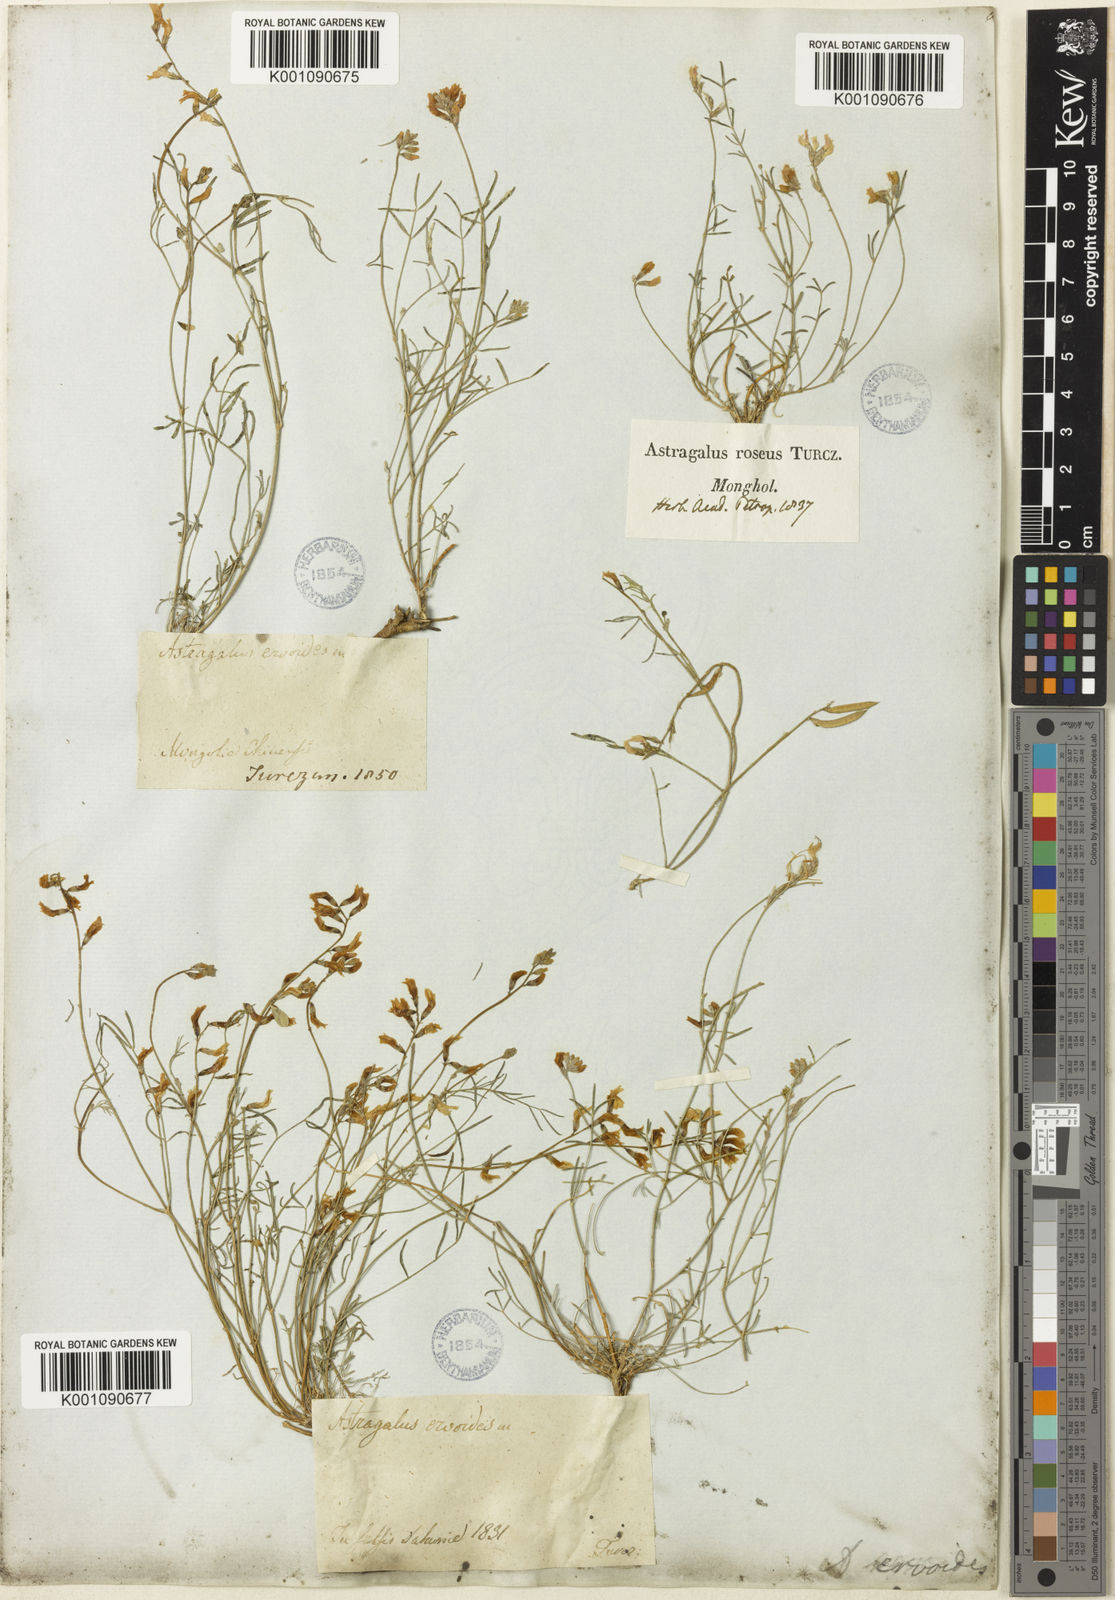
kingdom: Plantae
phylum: Tracheophyta
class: Magnoliopsida
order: Fabales
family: Fabaceae
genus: Astragalus
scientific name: Astragalus
